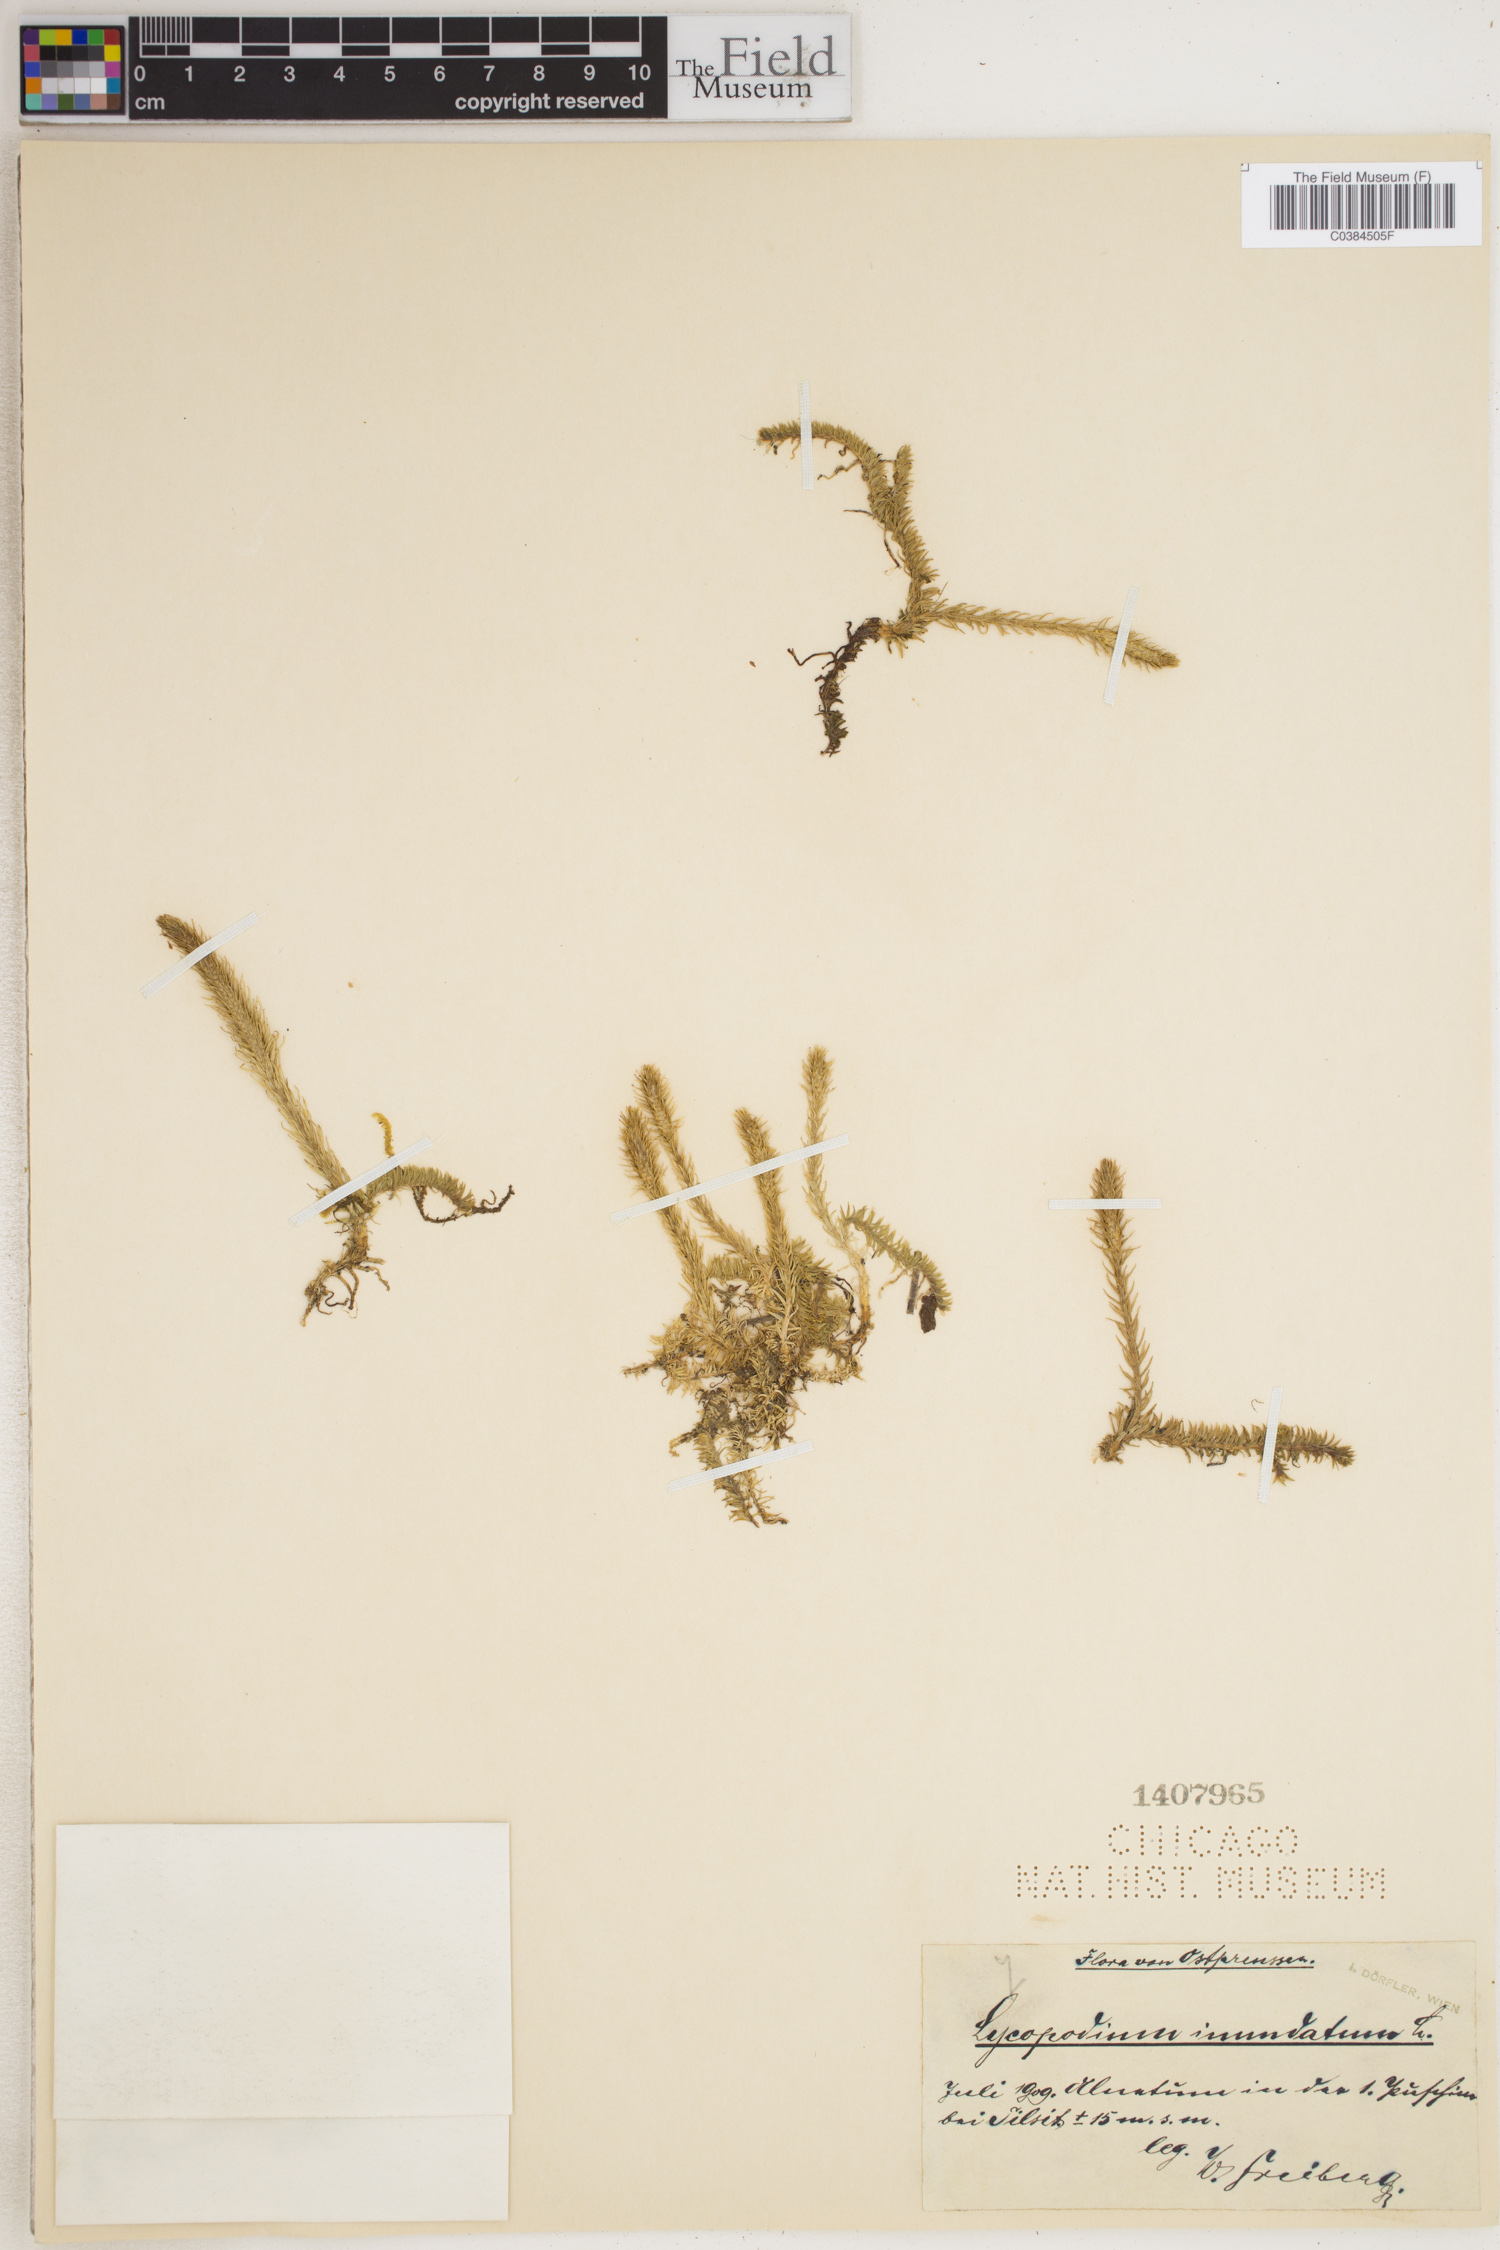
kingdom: Plantae
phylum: Tracheophyta
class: Lycopodiopsida
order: Lycopodiales
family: Lycopodiaceae
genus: Lycopodiella
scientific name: Lycopodiella inundata
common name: Marsh clubmoss
